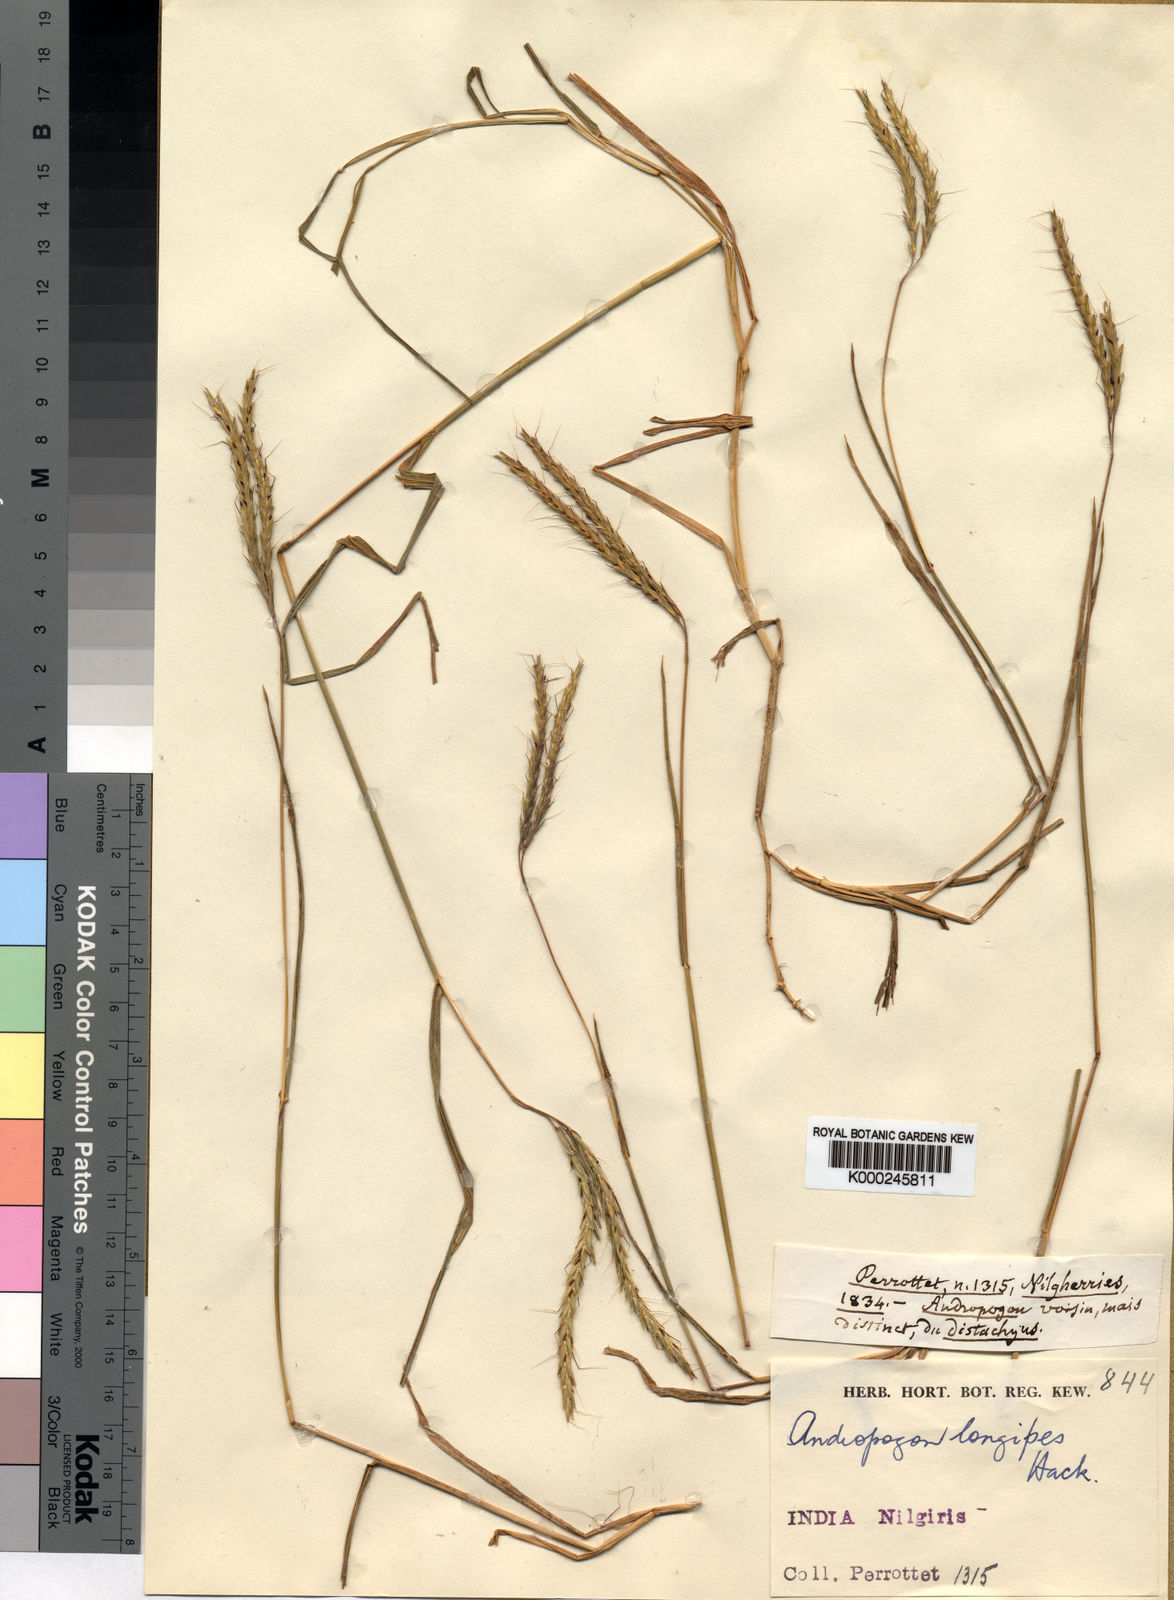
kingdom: Plantae
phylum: Tracheophyta
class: Liliopsida
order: Poales
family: Poaceae
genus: Andropogon
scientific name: Andropogon amethystinus
